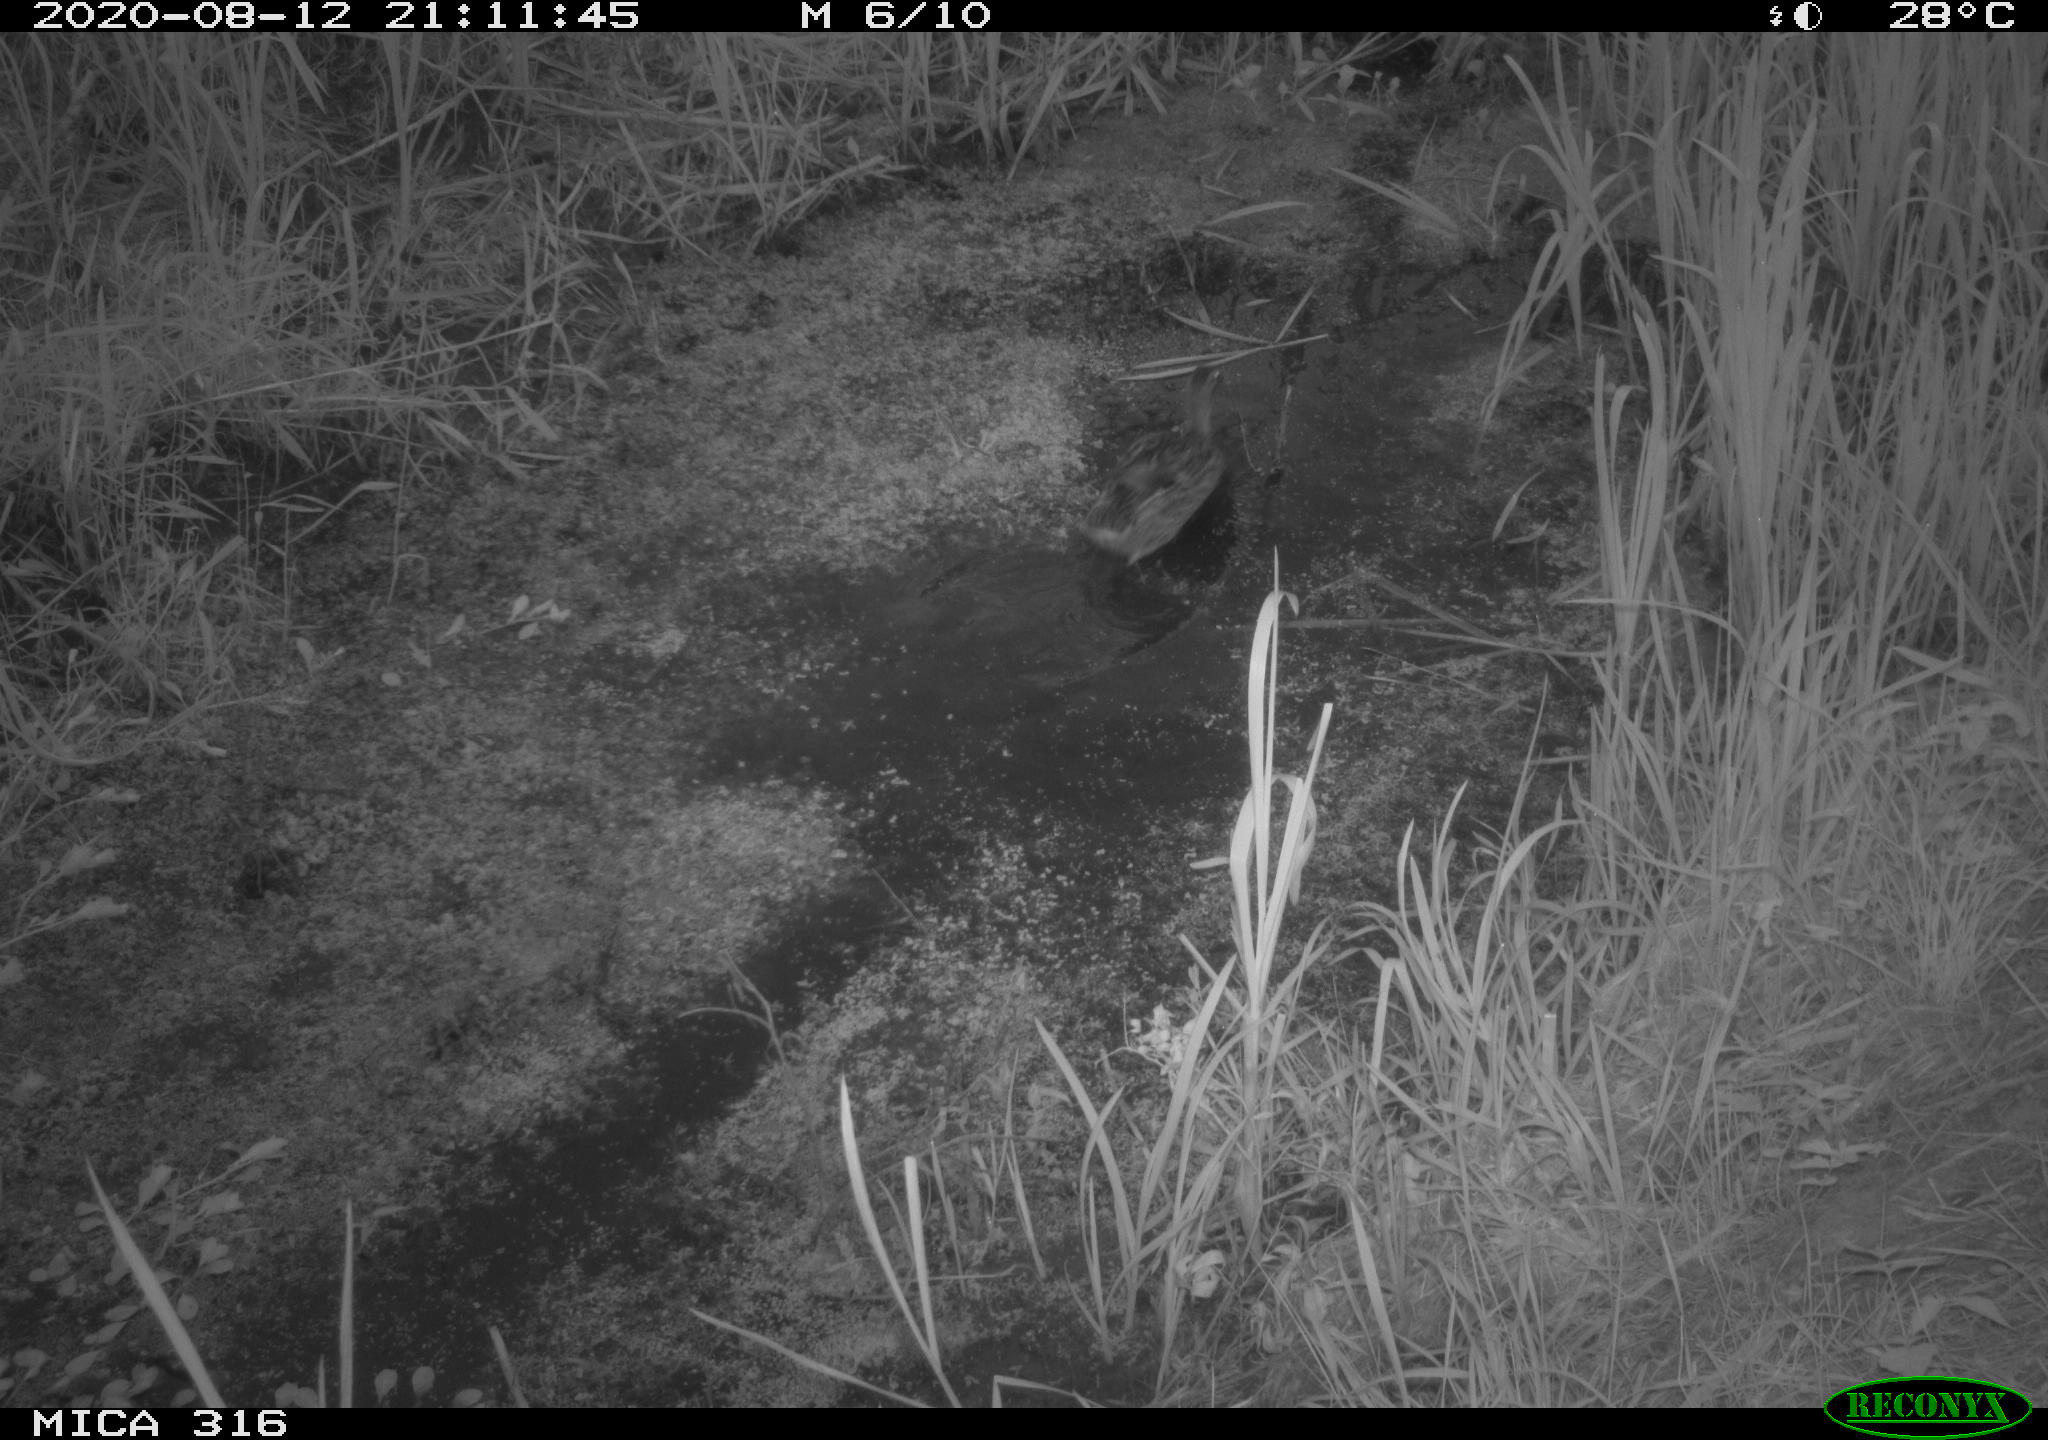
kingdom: Animalia
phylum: Chordata
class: Aves
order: Anseriformes
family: Anatidae
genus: Anas
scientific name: Anas platyrhynchos
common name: Mallard
